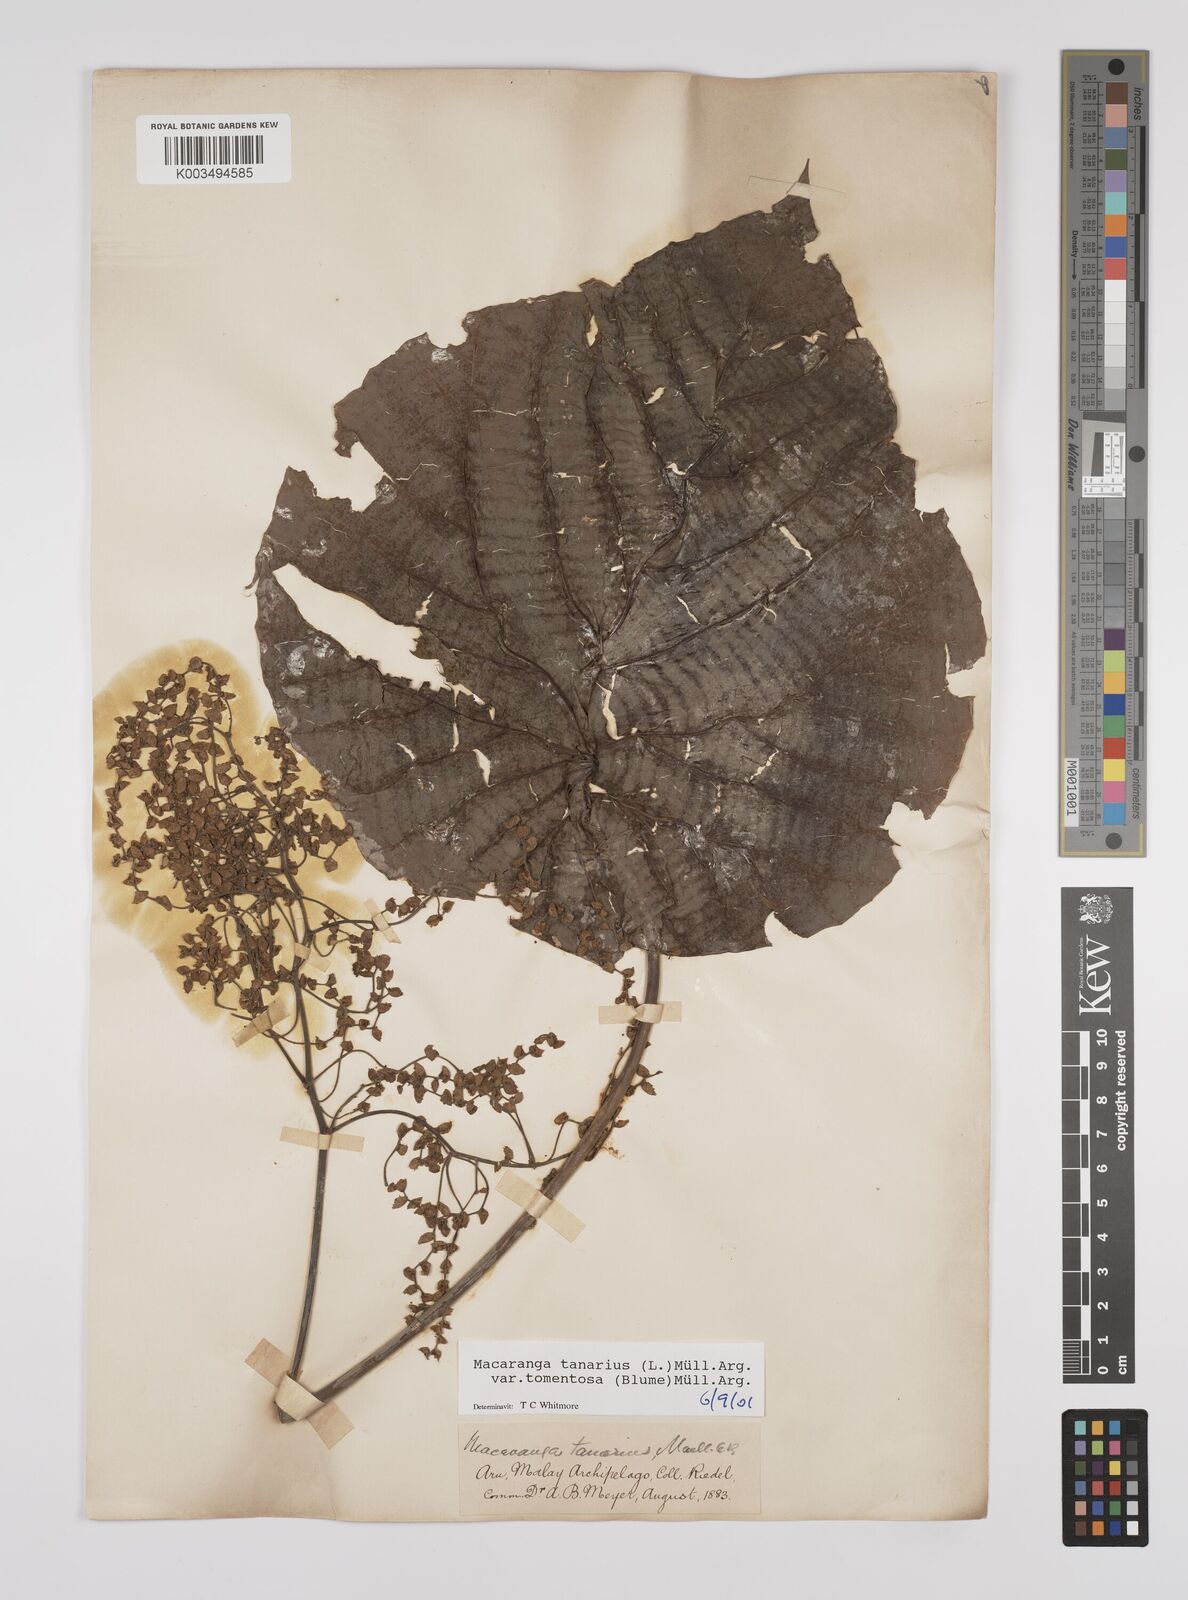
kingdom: Plantae
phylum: Tracheophyta
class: Magnoliopsida
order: Malpighiales
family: Euphorbiaceae
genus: Macaranga
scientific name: Macaranga tanarius
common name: Parasol leaf tree
